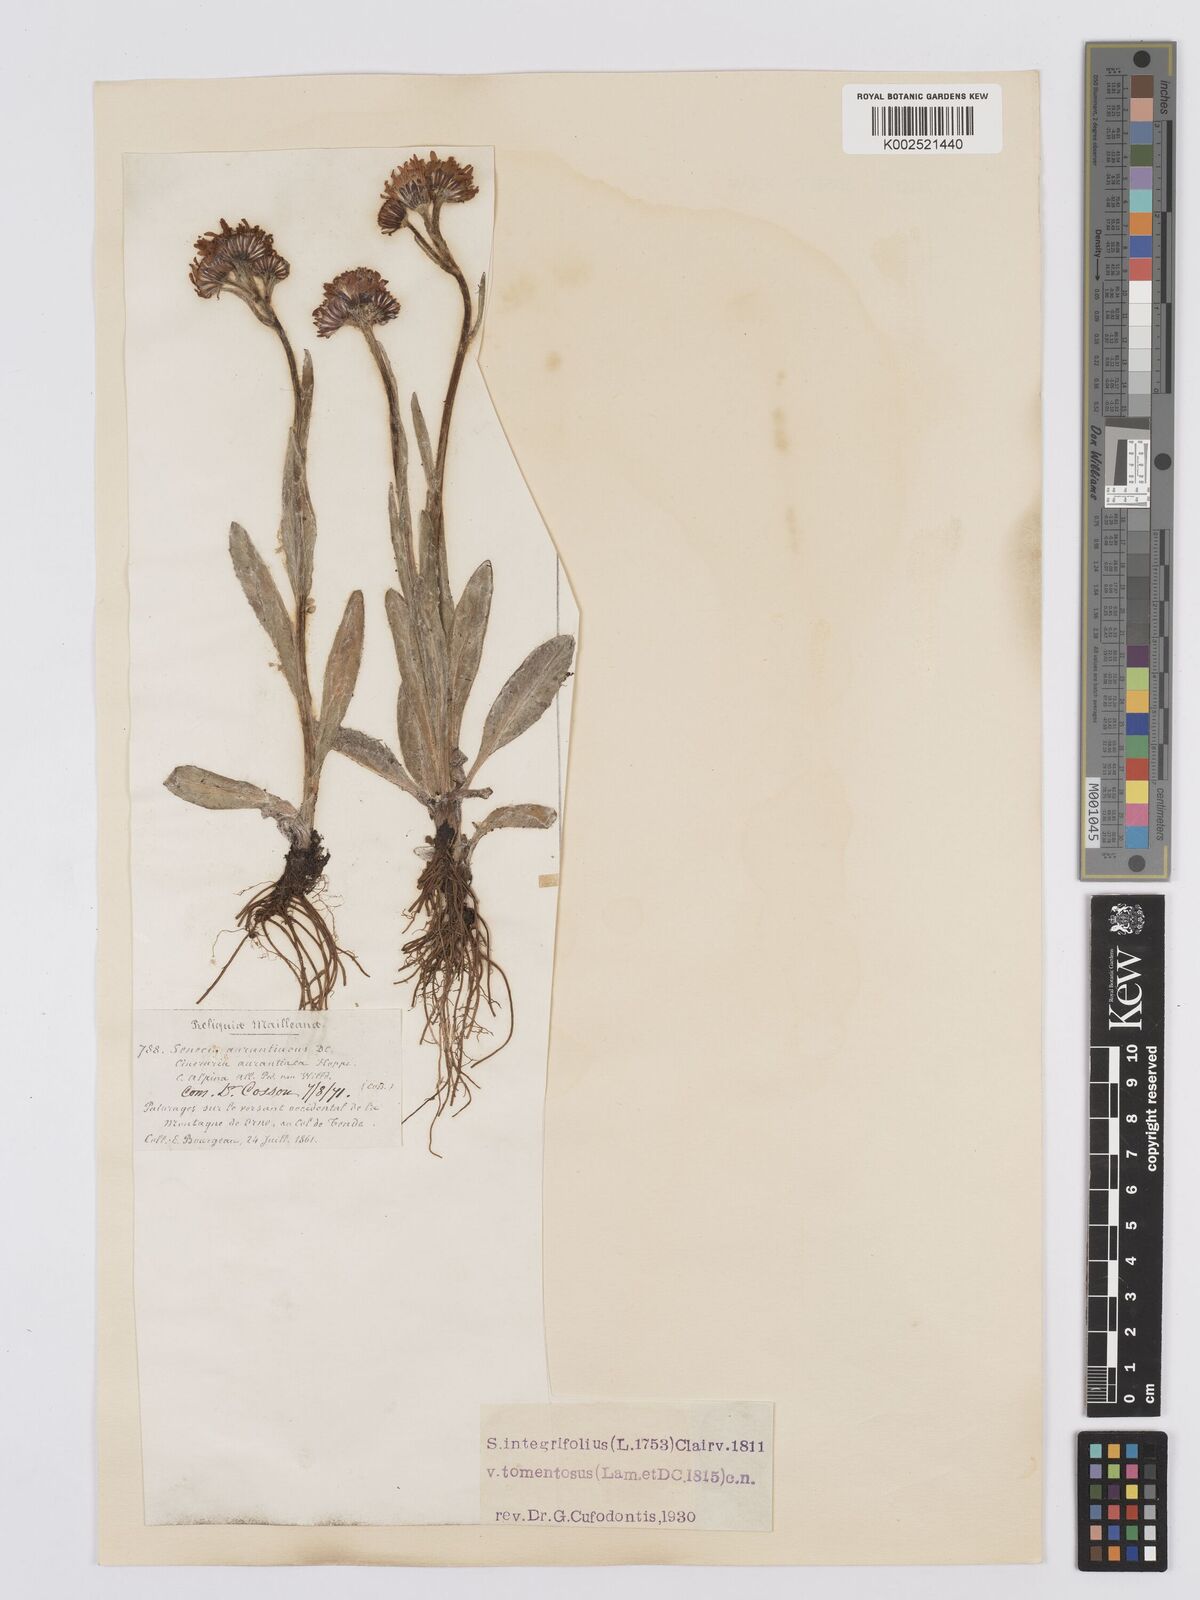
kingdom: Plantae
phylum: Tracheophyta
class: Magnoliopsida
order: Asterales
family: Asteraceae
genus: Tephroseris
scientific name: Tephroseris integrifolia
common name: Field fleawort
